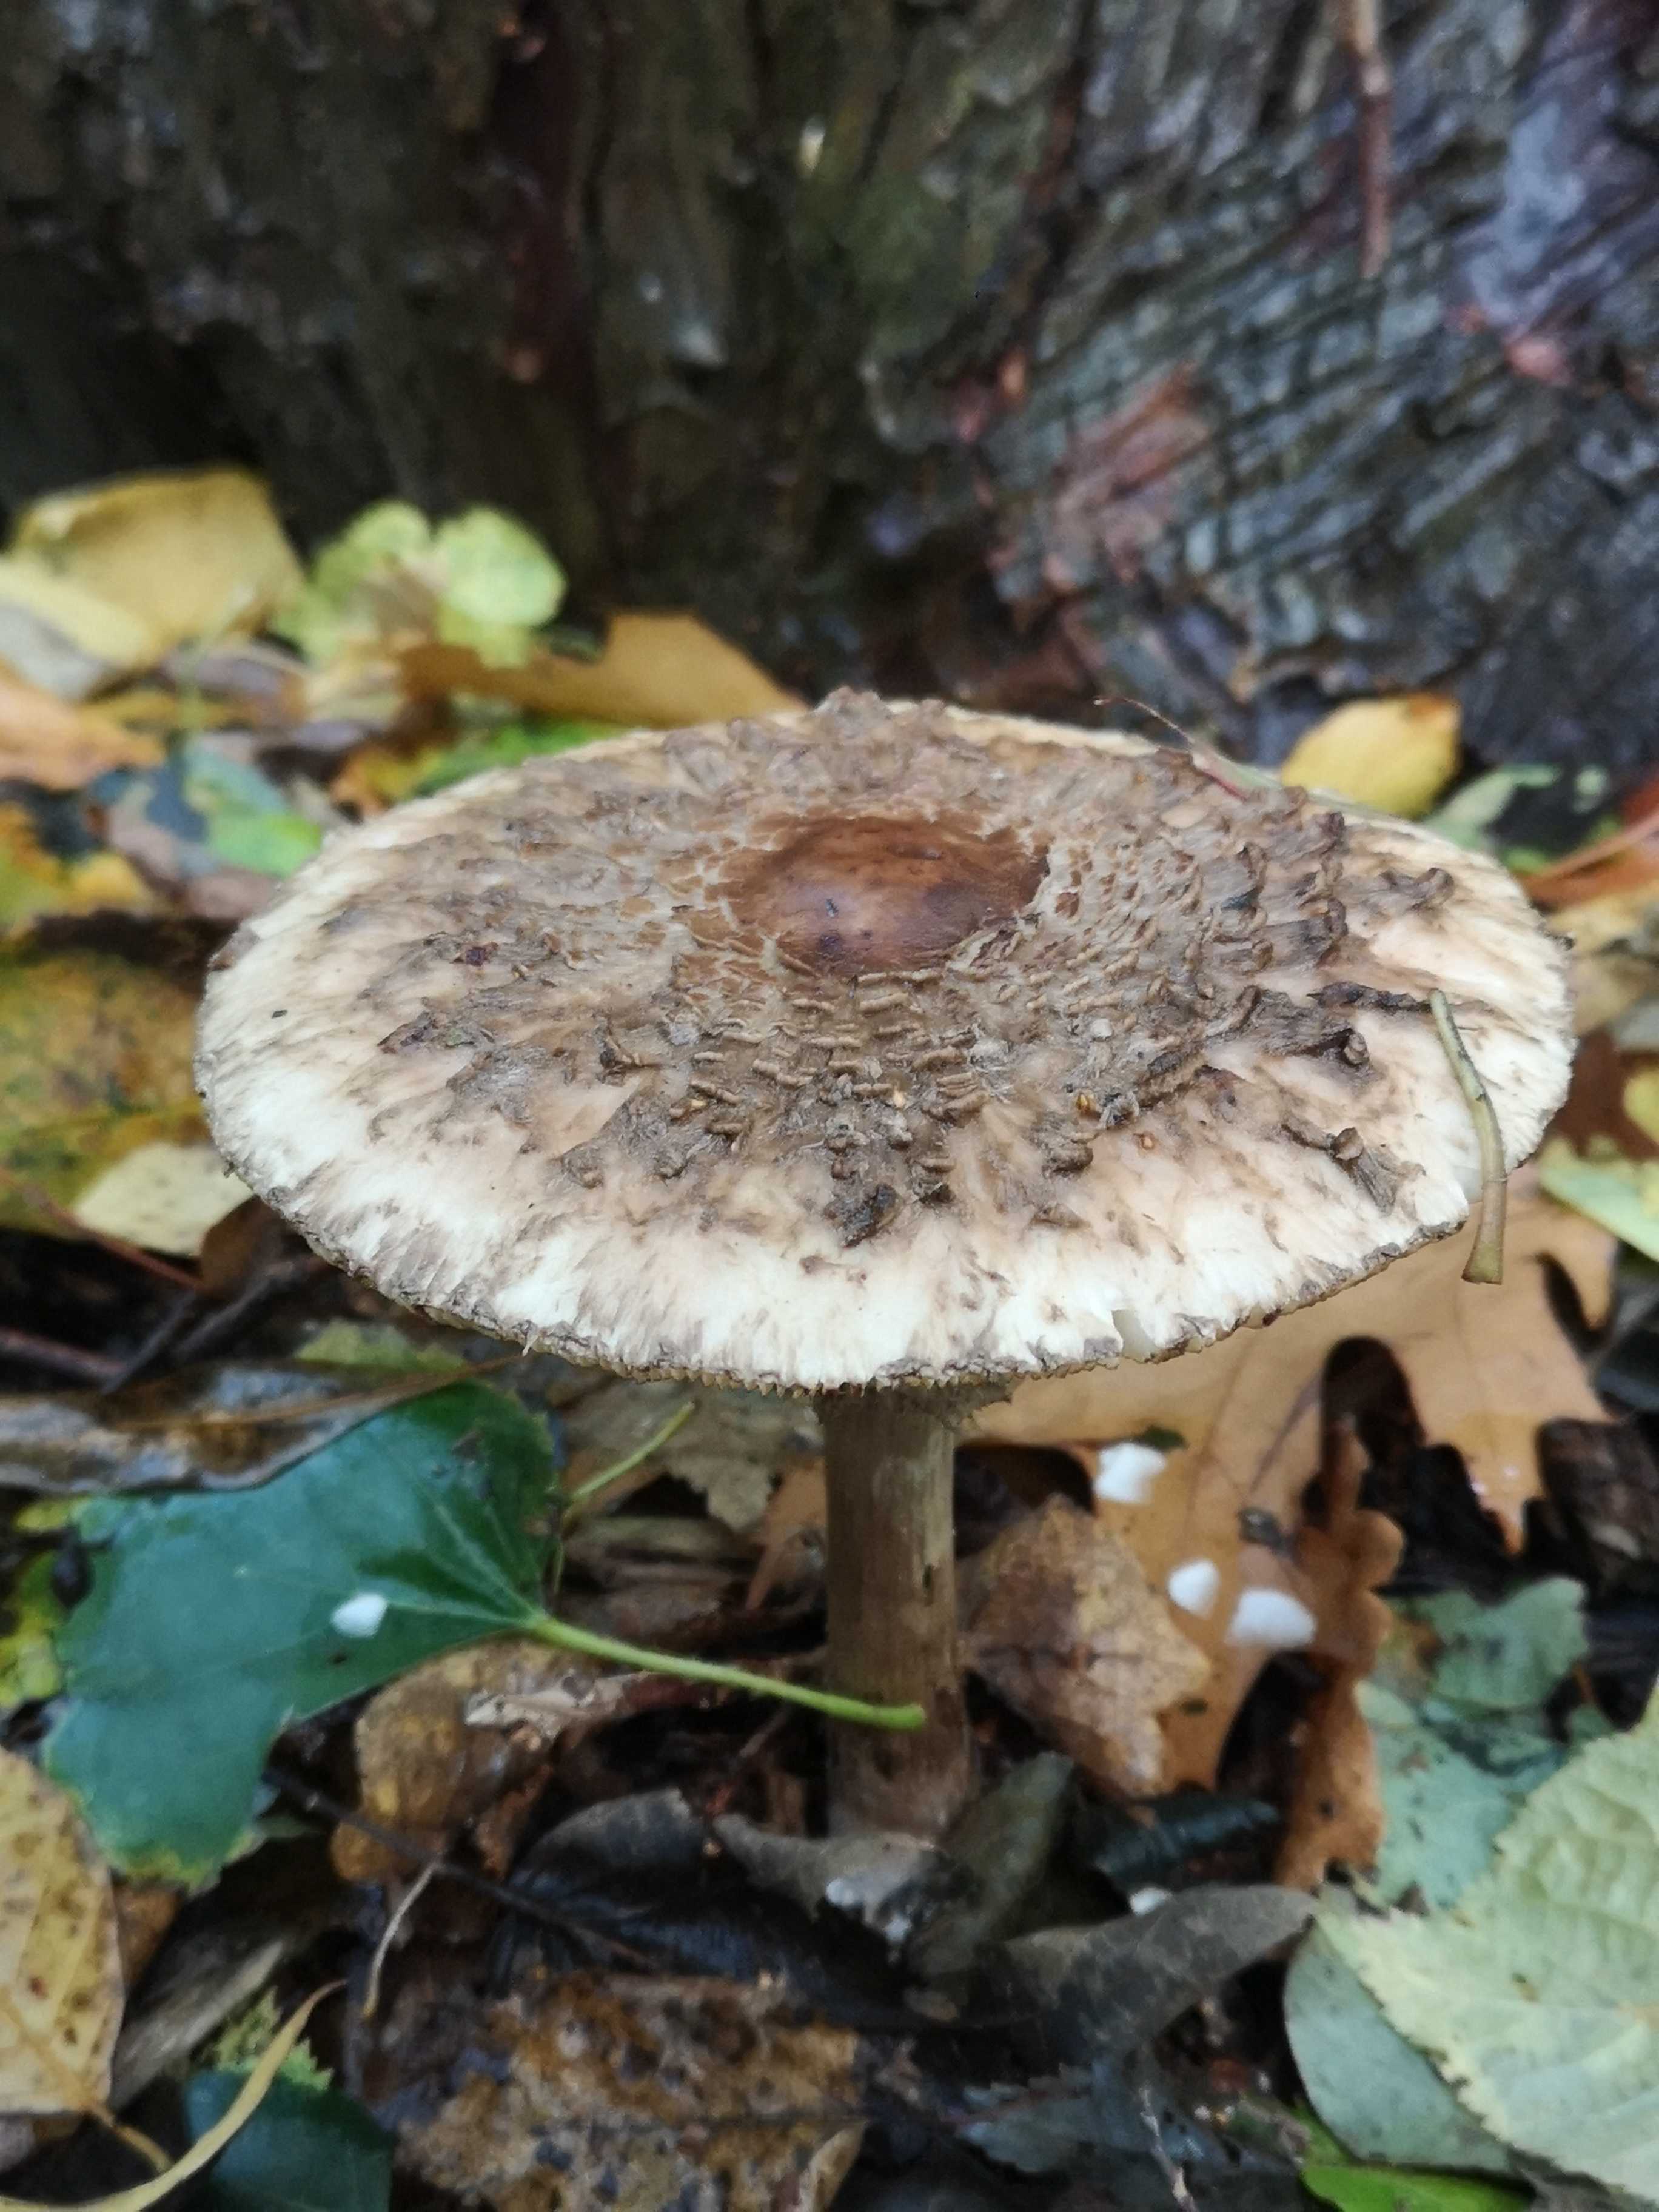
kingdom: Fungi
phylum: Basidiomycota
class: Agaricomycetes
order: Agaricales
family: Agaricaceae
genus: Chlorophyllum
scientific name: Chlorophyllum
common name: rabarberhat
